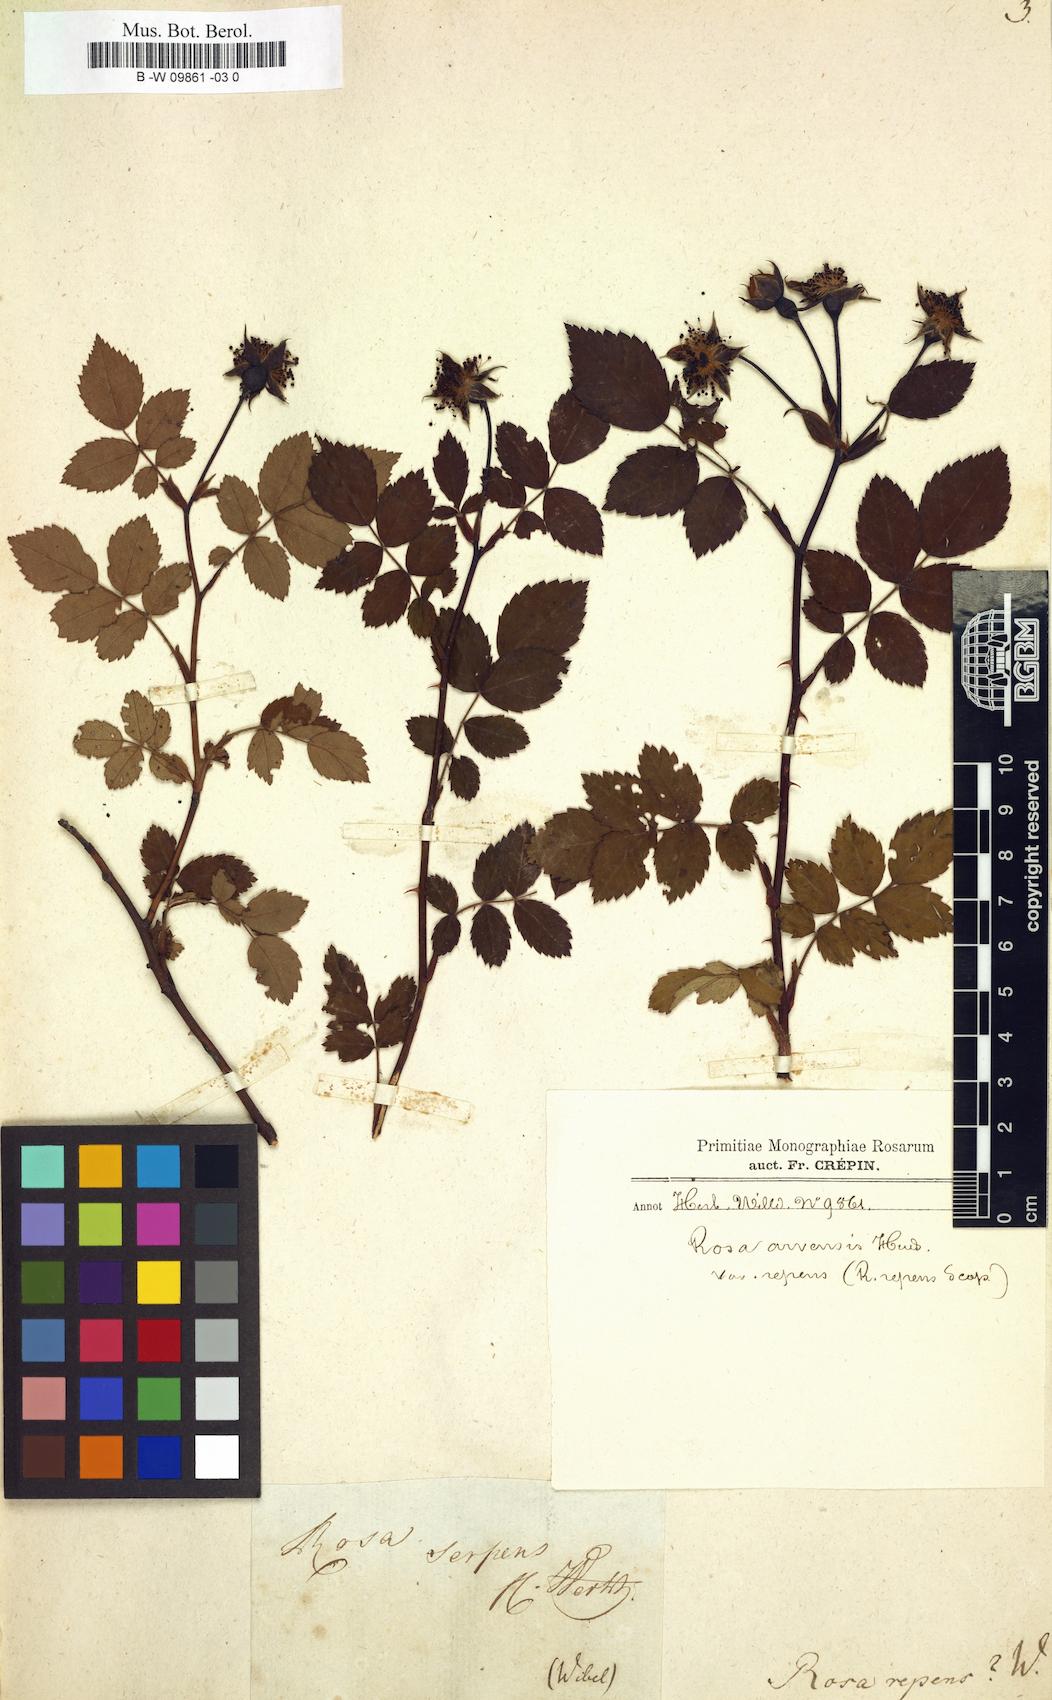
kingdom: Plantae
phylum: Tracheophyta
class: Magnoliopsida
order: Rosales
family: Rosaceae
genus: Rosa
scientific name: Rosa
